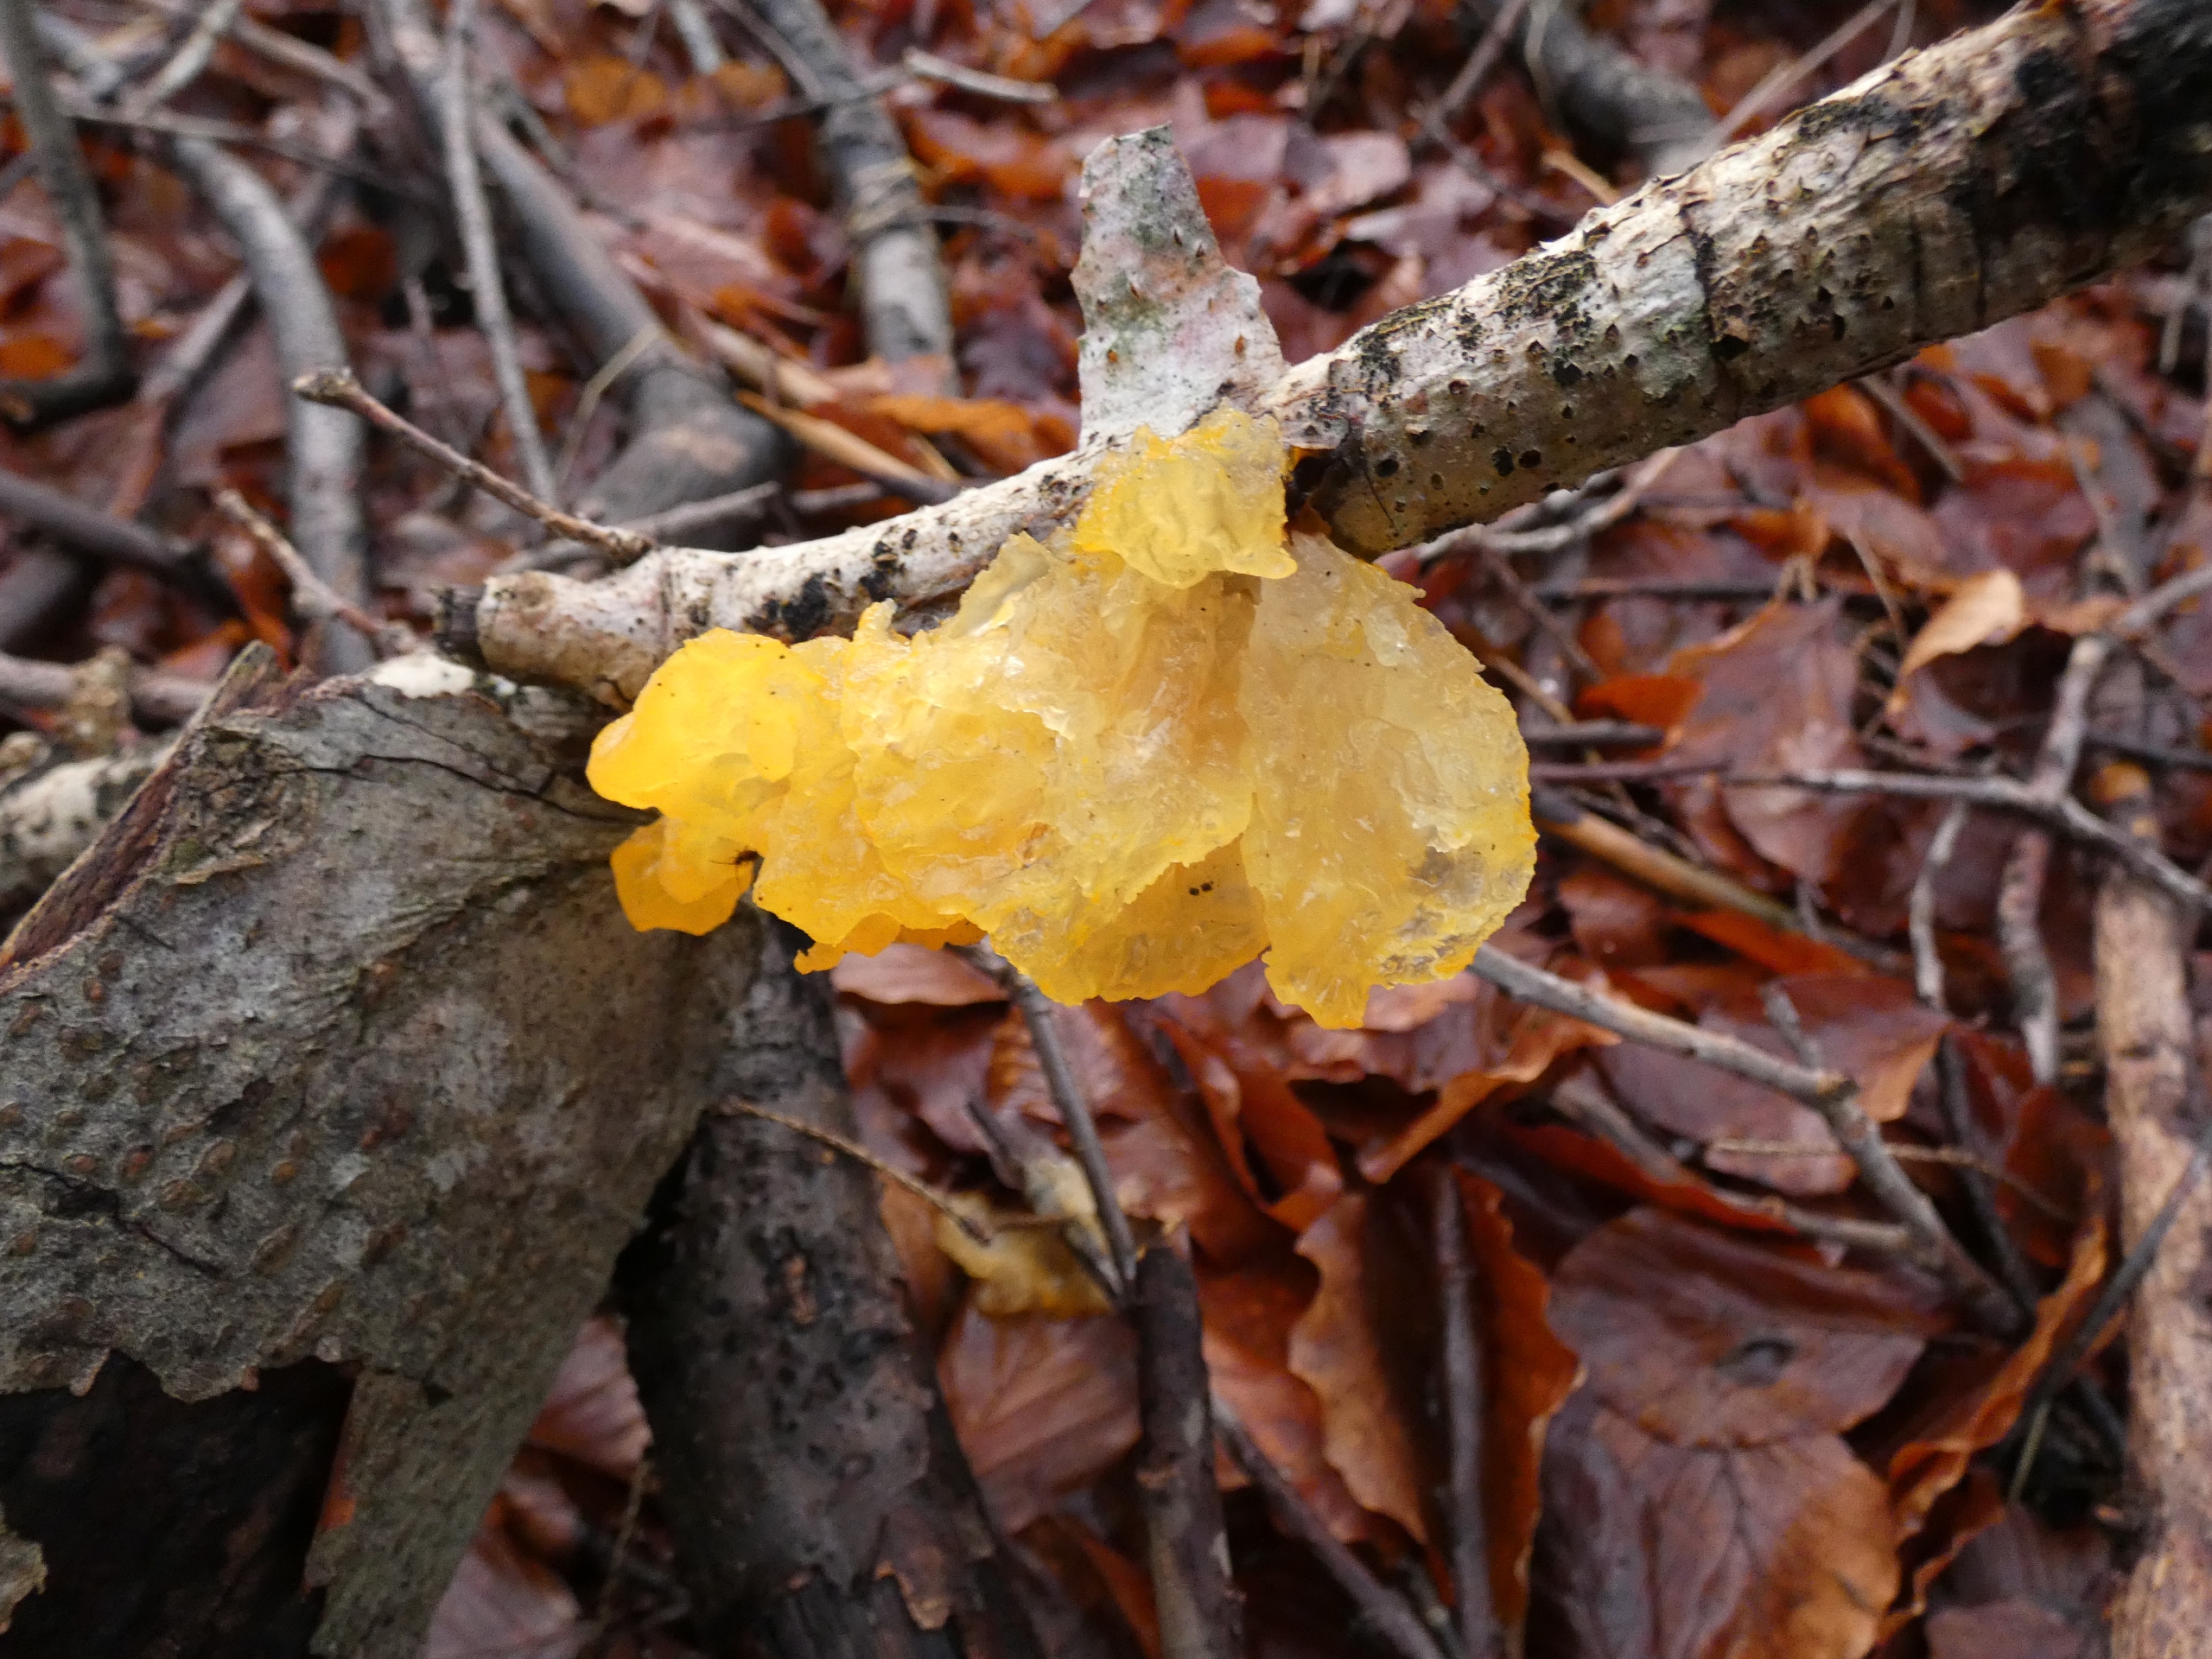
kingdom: Fungi
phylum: Basidiomycota
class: Tremellomycetes
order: Tremellales
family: Tremellaceae
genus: Tremella
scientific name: Tremella mesenterica
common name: Gul bævresvamp
